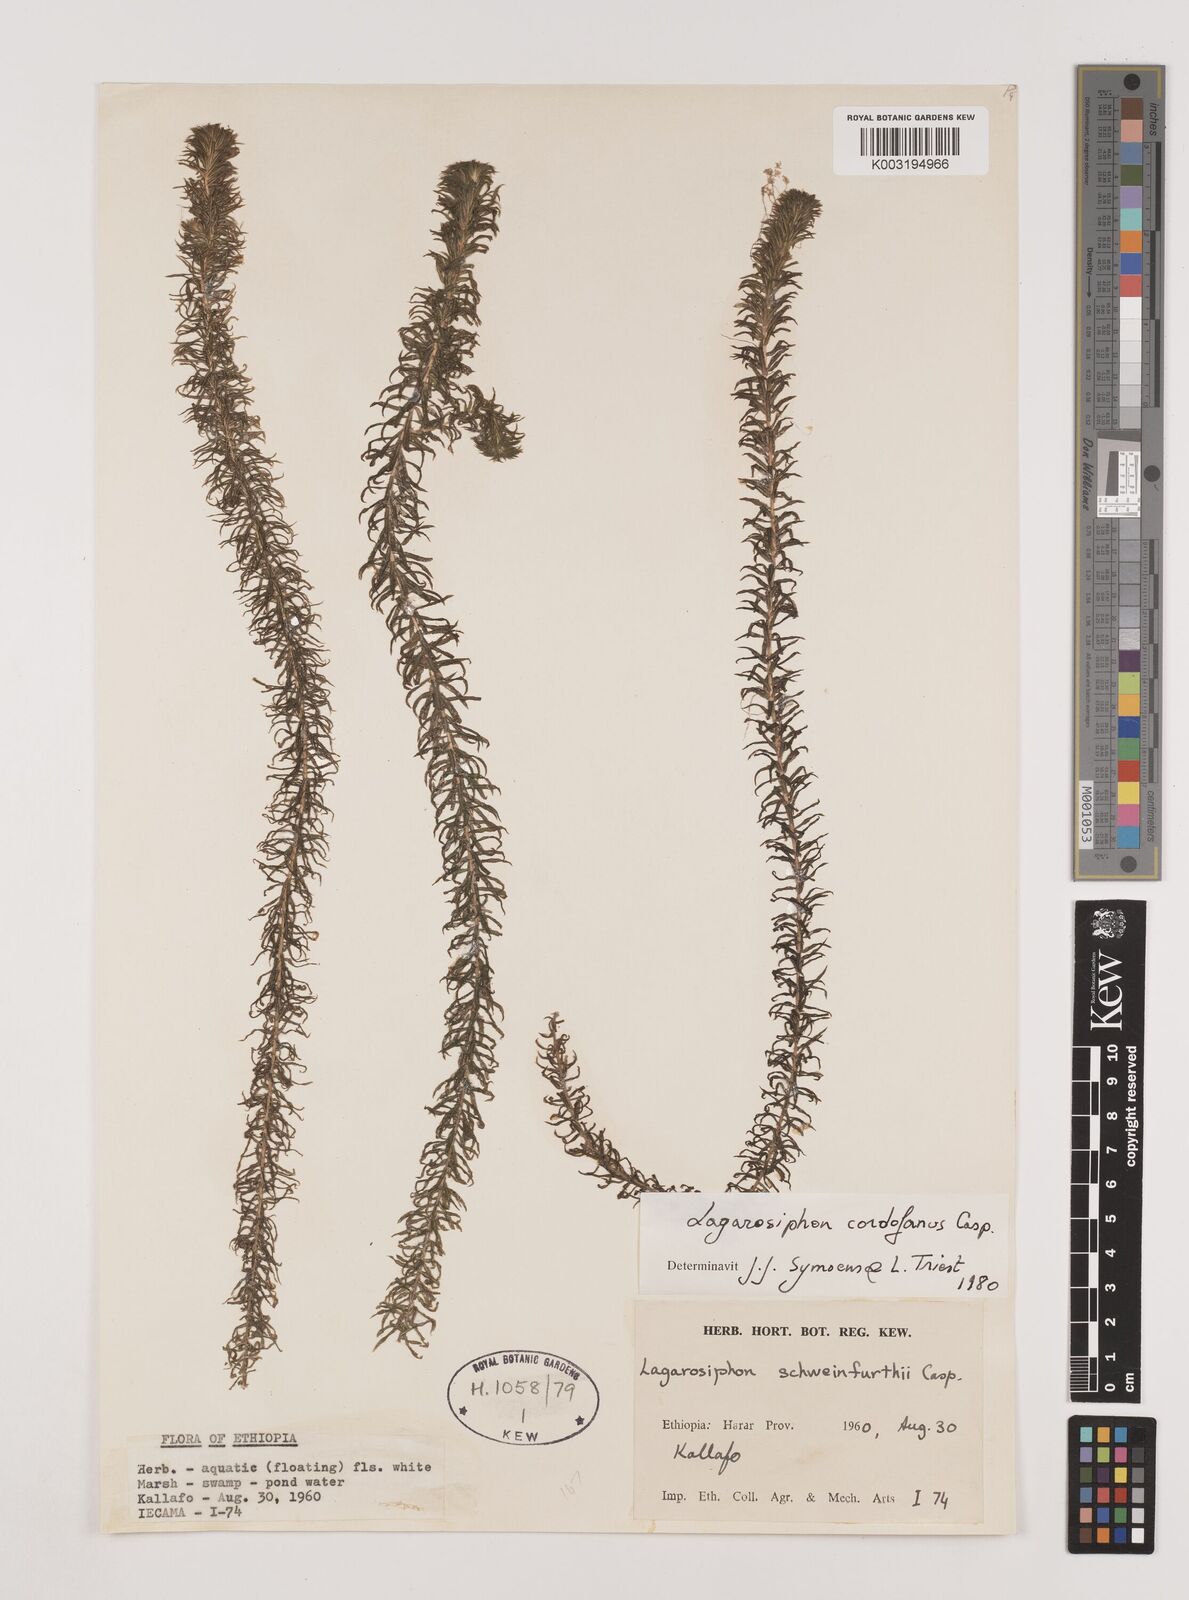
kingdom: Plantae
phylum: Tracheophyta
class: Liliopsida
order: Alismatales
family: Hydrocharitaceae
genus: Lagarosiphon
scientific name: Lagarosiphon cordofanus
